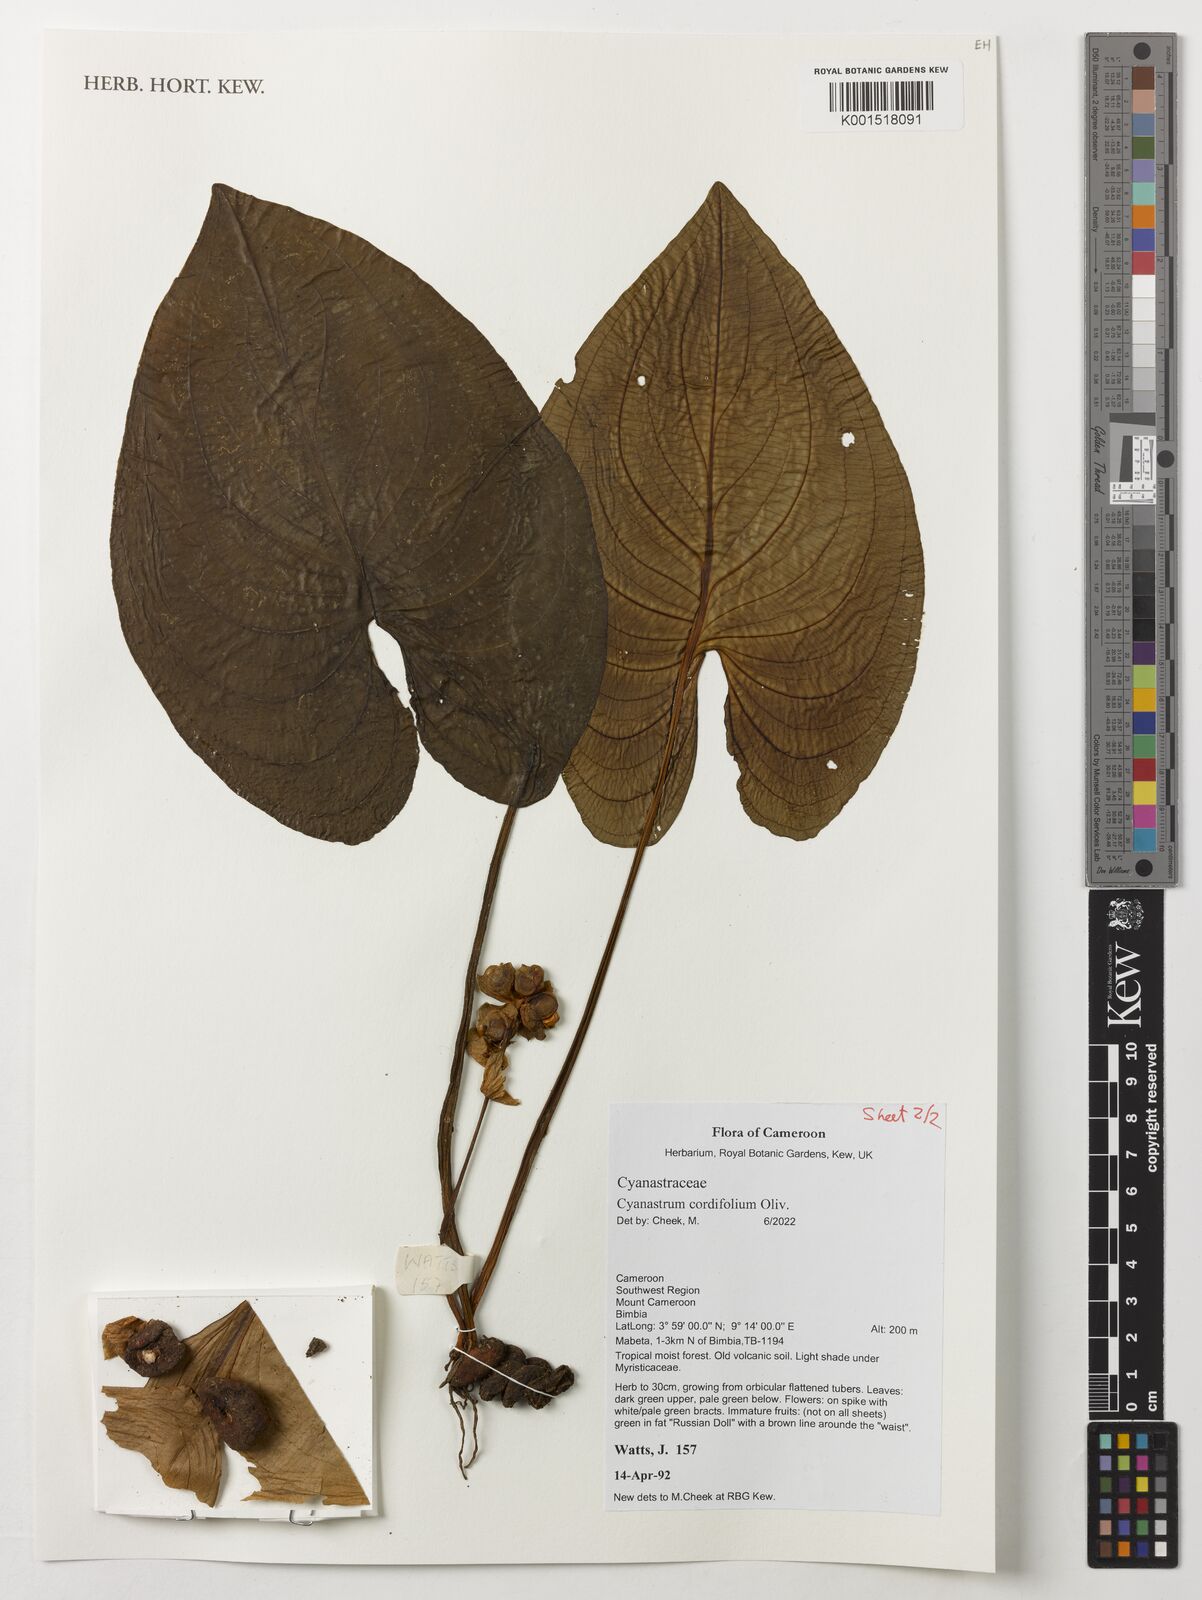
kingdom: Plantae
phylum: Tracheophyta
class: Liliopsida
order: Asparagales
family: Tecophilaeaceae
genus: Cyanastrum
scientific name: Cyanastrum cordifolium
